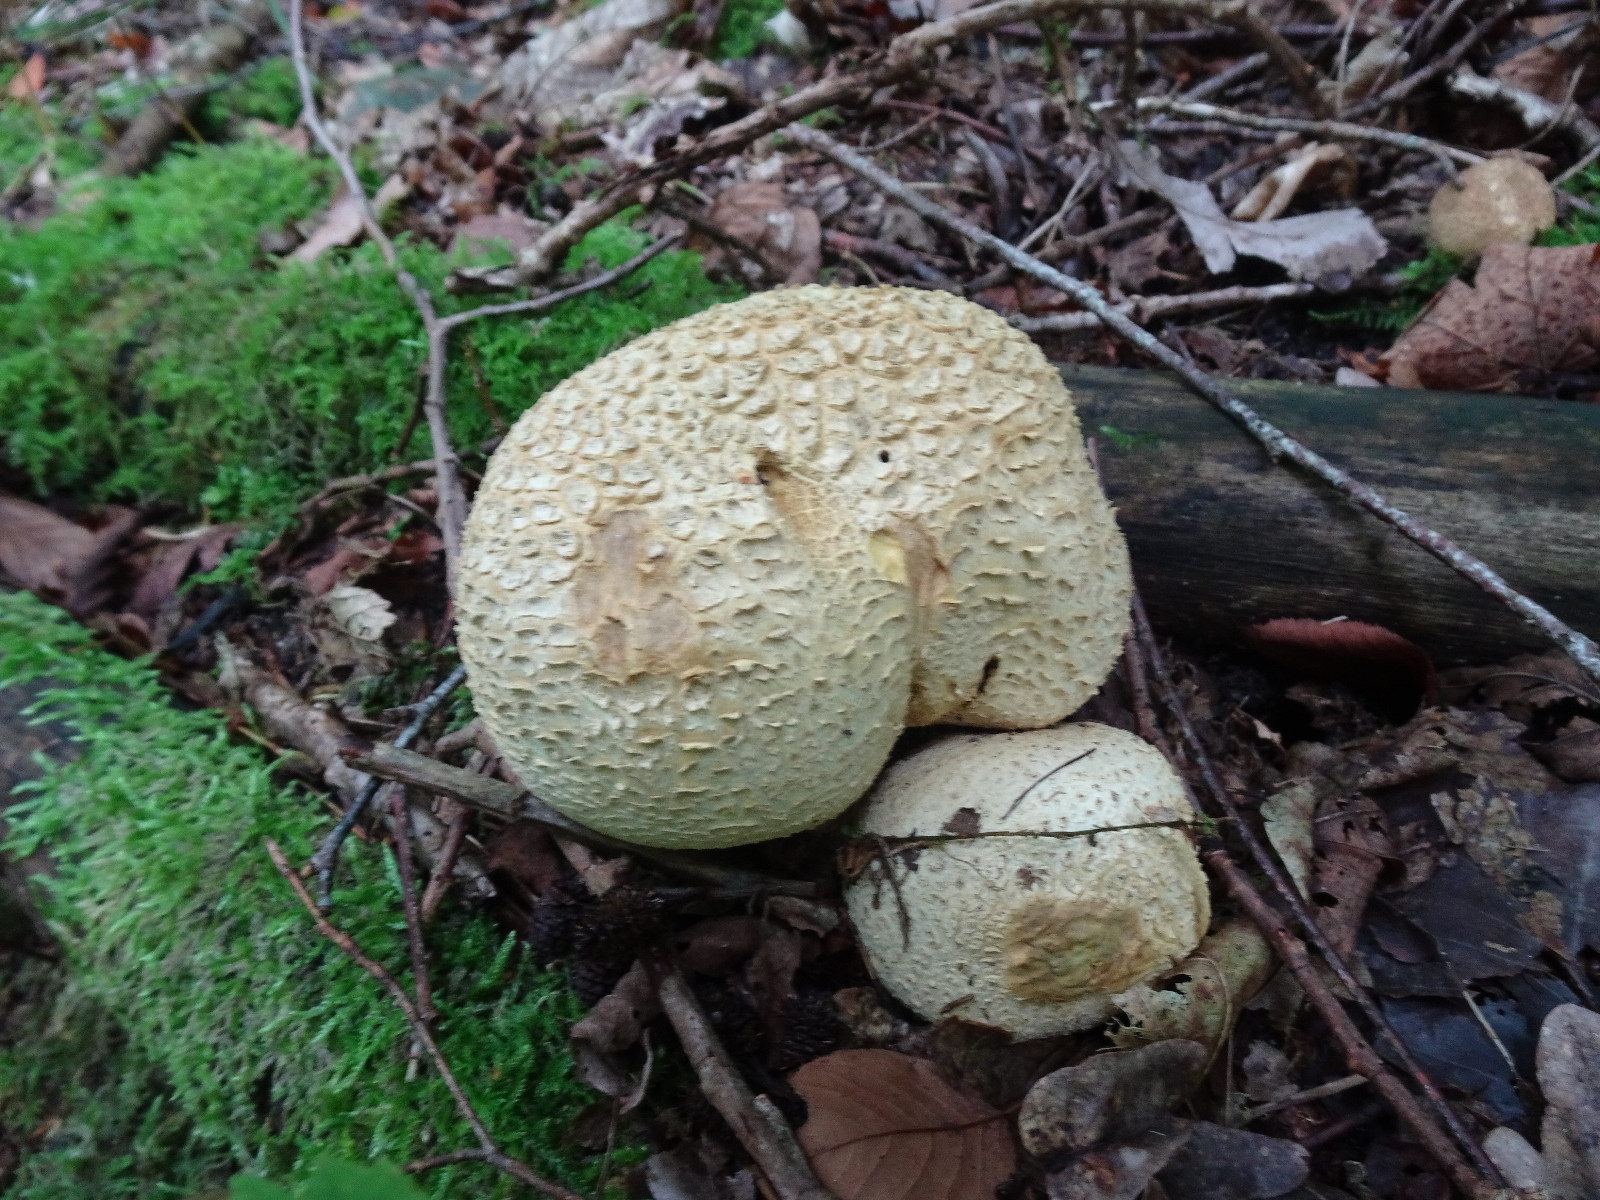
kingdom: Fungi
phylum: Basidiomycota
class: Agaricomycetes
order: Boletales
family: Sclerodermataceae
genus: Scleroderma
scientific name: Scleroderma citrinum
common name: almindelig bruskbold
